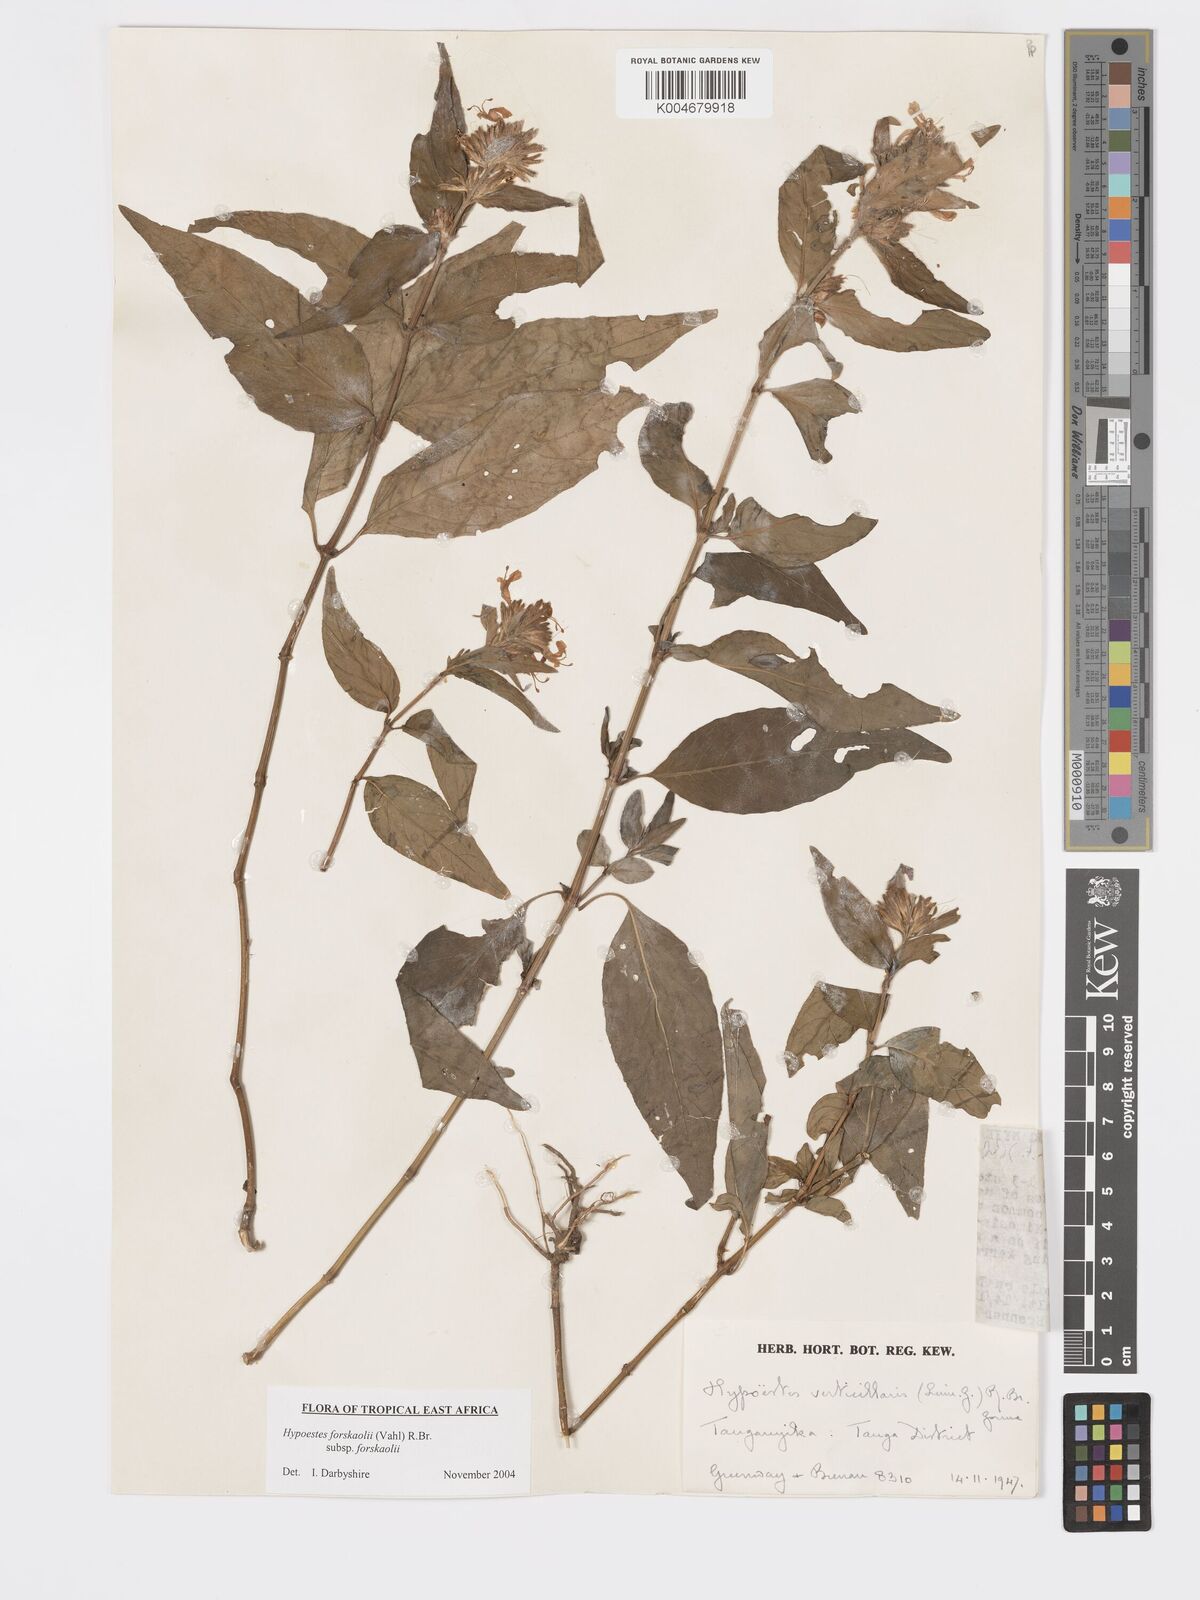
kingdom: Plantae
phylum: Tracheophyta
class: Magnoliopsida
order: Lamiales
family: Acanthaceae
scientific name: Acanthaceae
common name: Acanthaceae
